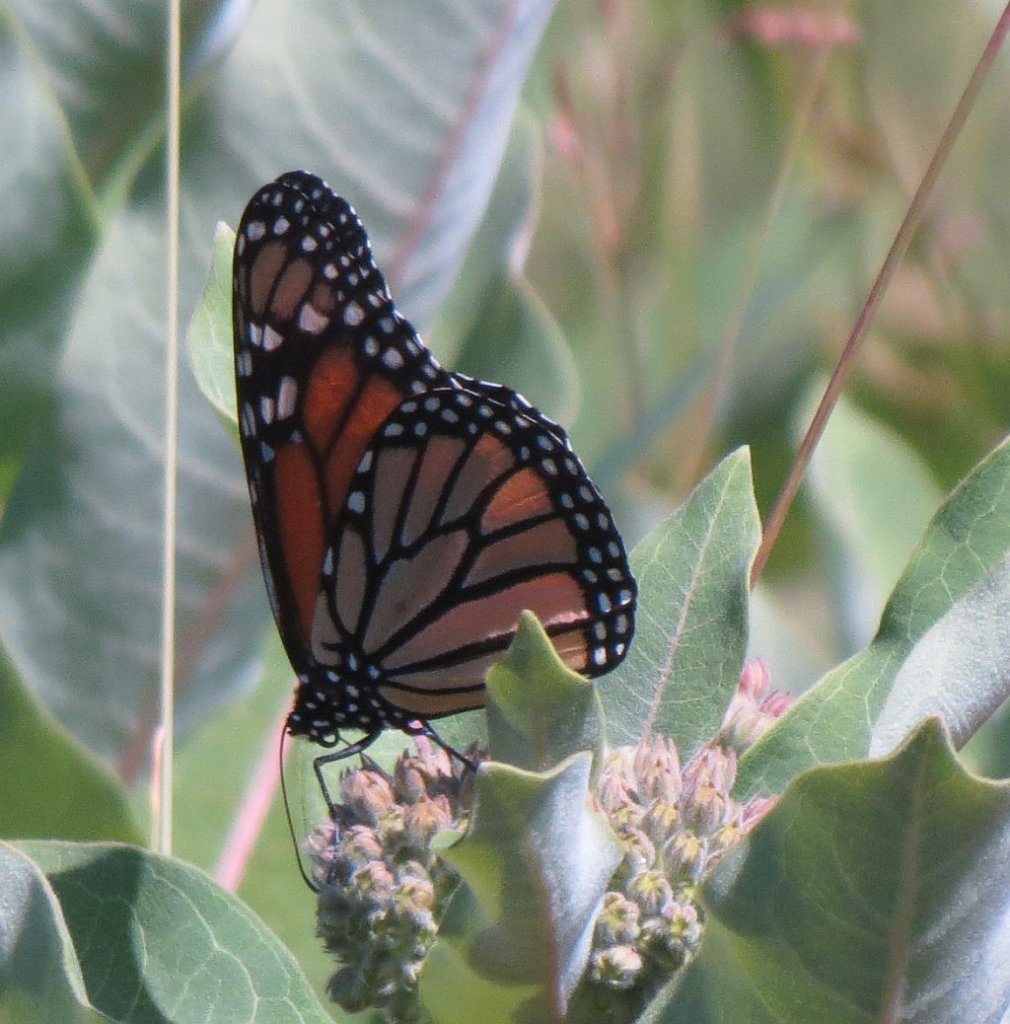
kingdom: Animalia
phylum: Arthropoda
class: Insecta
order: Lepidoptera
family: Nymphalidae
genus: Danaus
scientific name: Danaus plexippus
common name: Monarch
